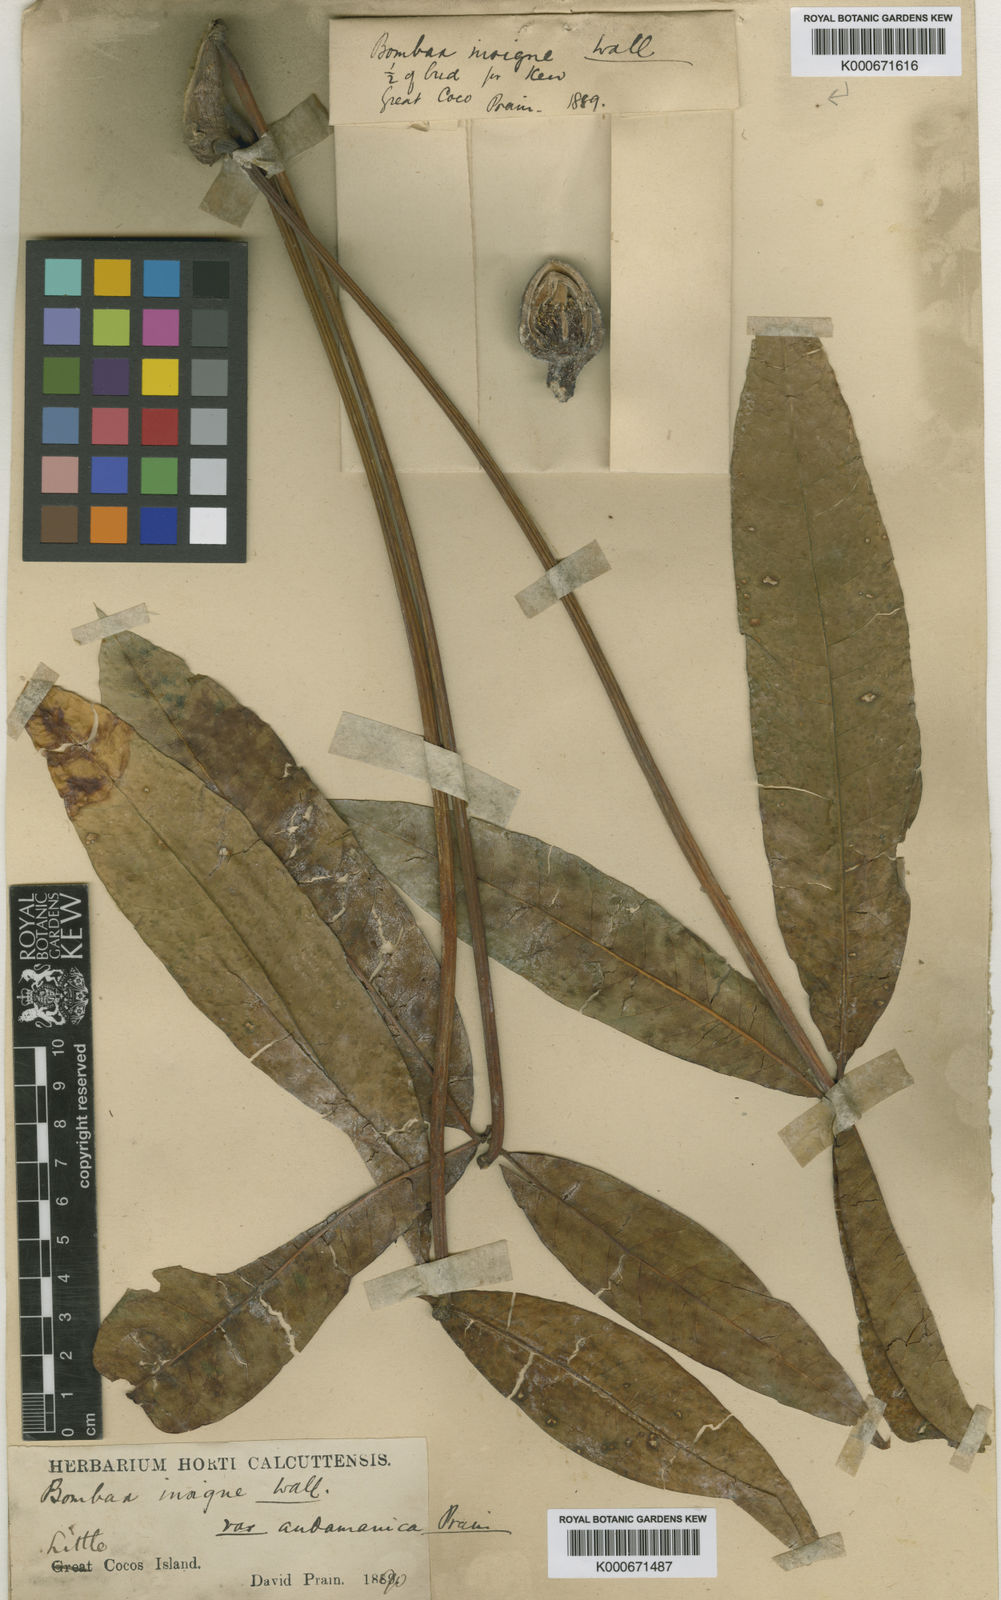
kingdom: Plantae
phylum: Tracheophyta
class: Magnoliopsida
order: Malvales
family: Malvaceae
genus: Bombax
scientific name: Bombax insigne
